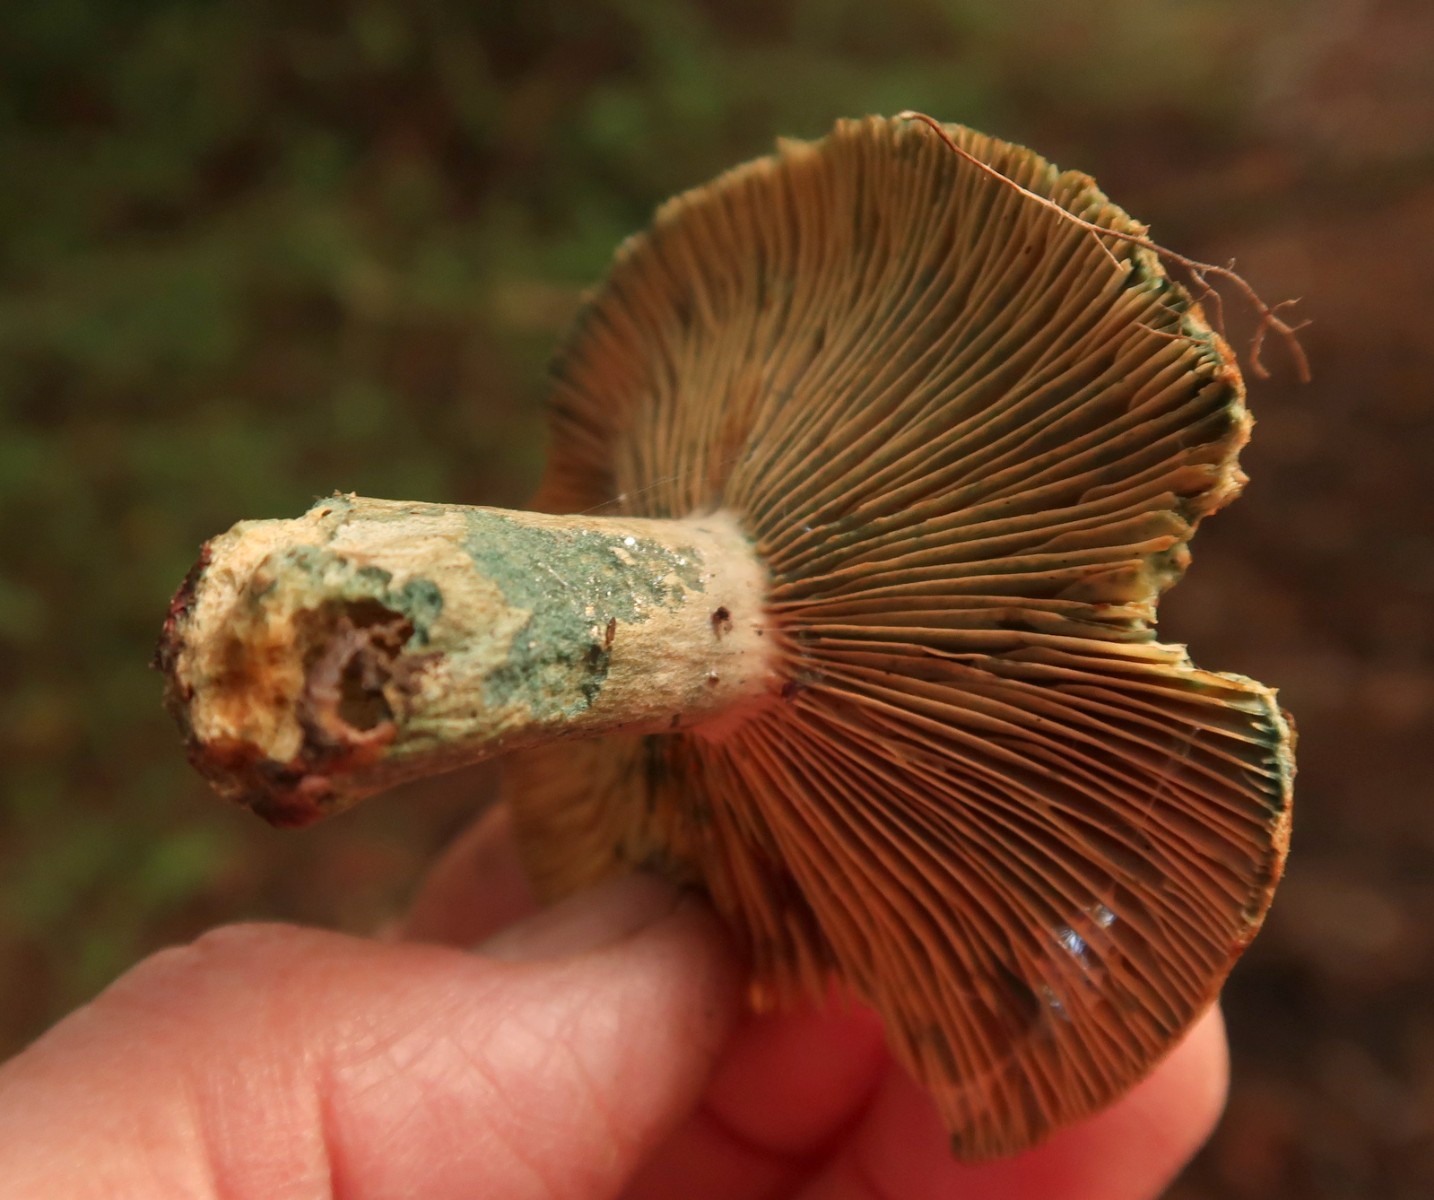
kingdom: Fungi
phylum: Basidiomycota
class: Agaricomycetes
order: Russulales
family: Russulaceae
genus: Lactarius
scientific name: Lactarius deterrimus
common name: gran-mælkehat
